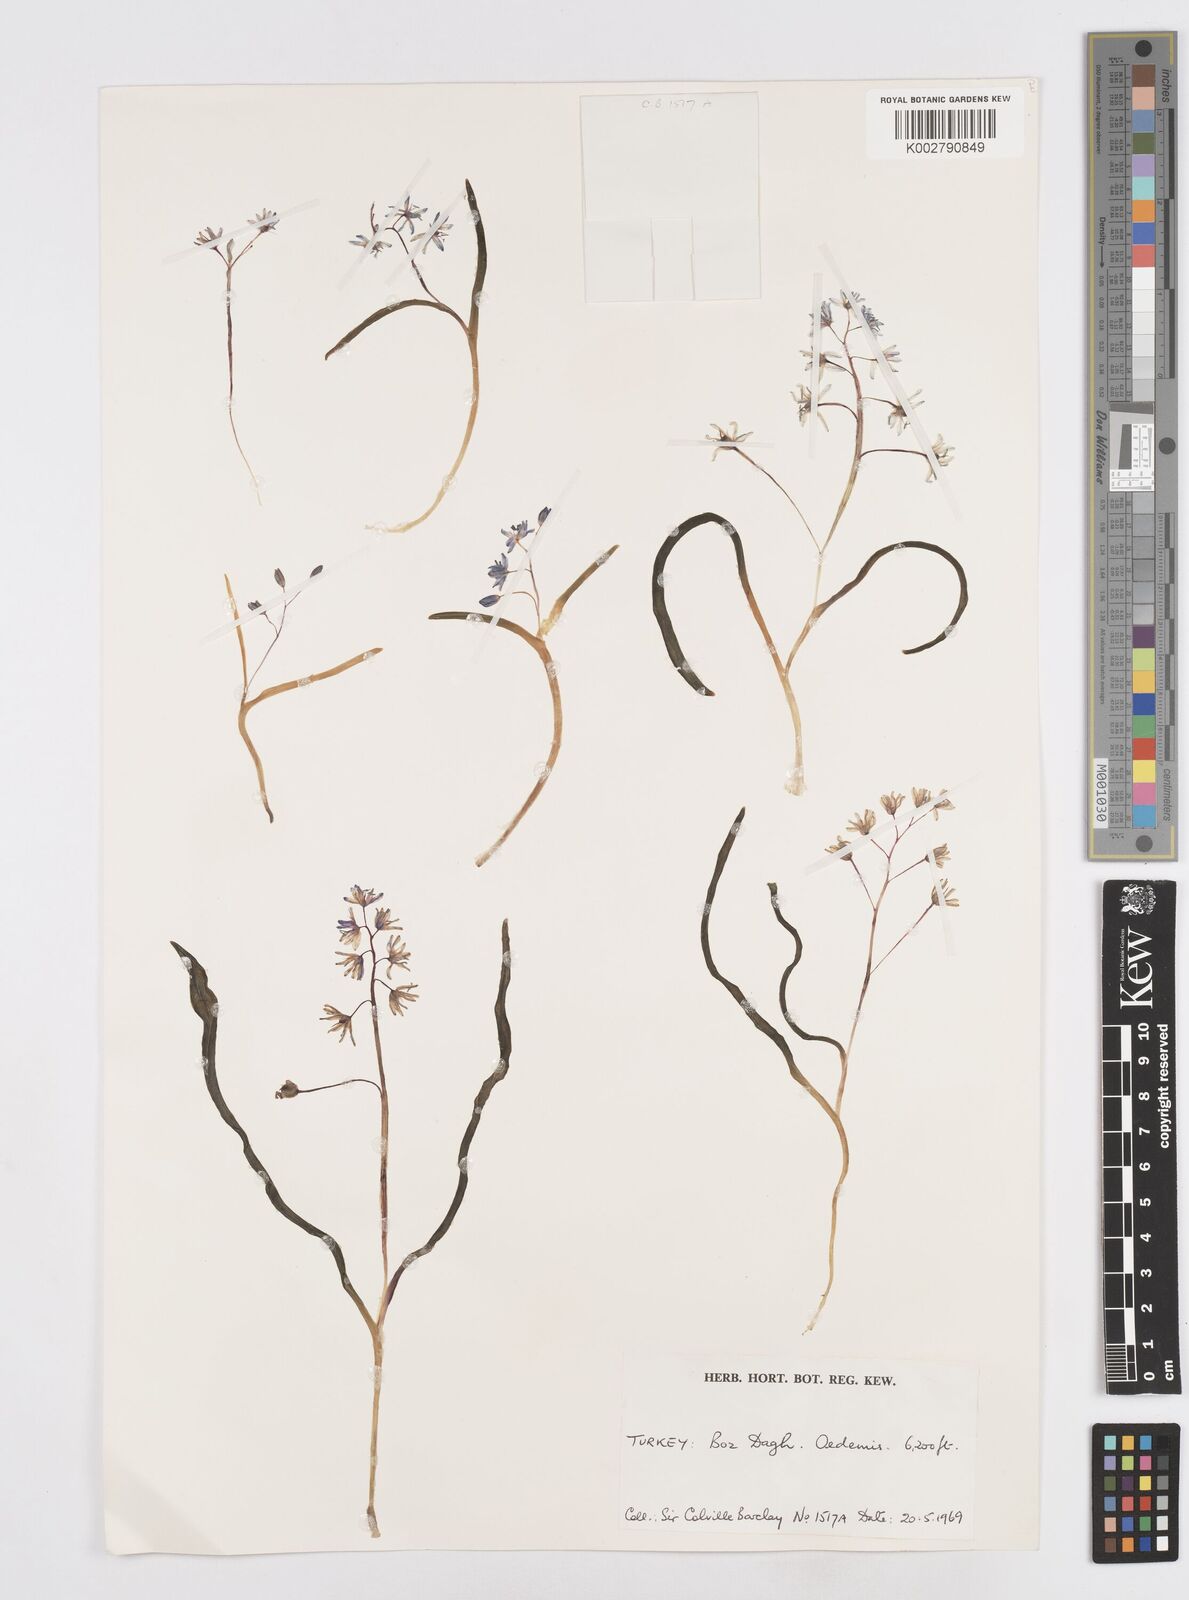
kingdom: Plantae
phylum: Tracheophyta
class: Liliopsida
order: Asparagales
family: Asparagaceae
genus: Scilla
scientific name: Scilla bifolia
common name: Alpine squill
